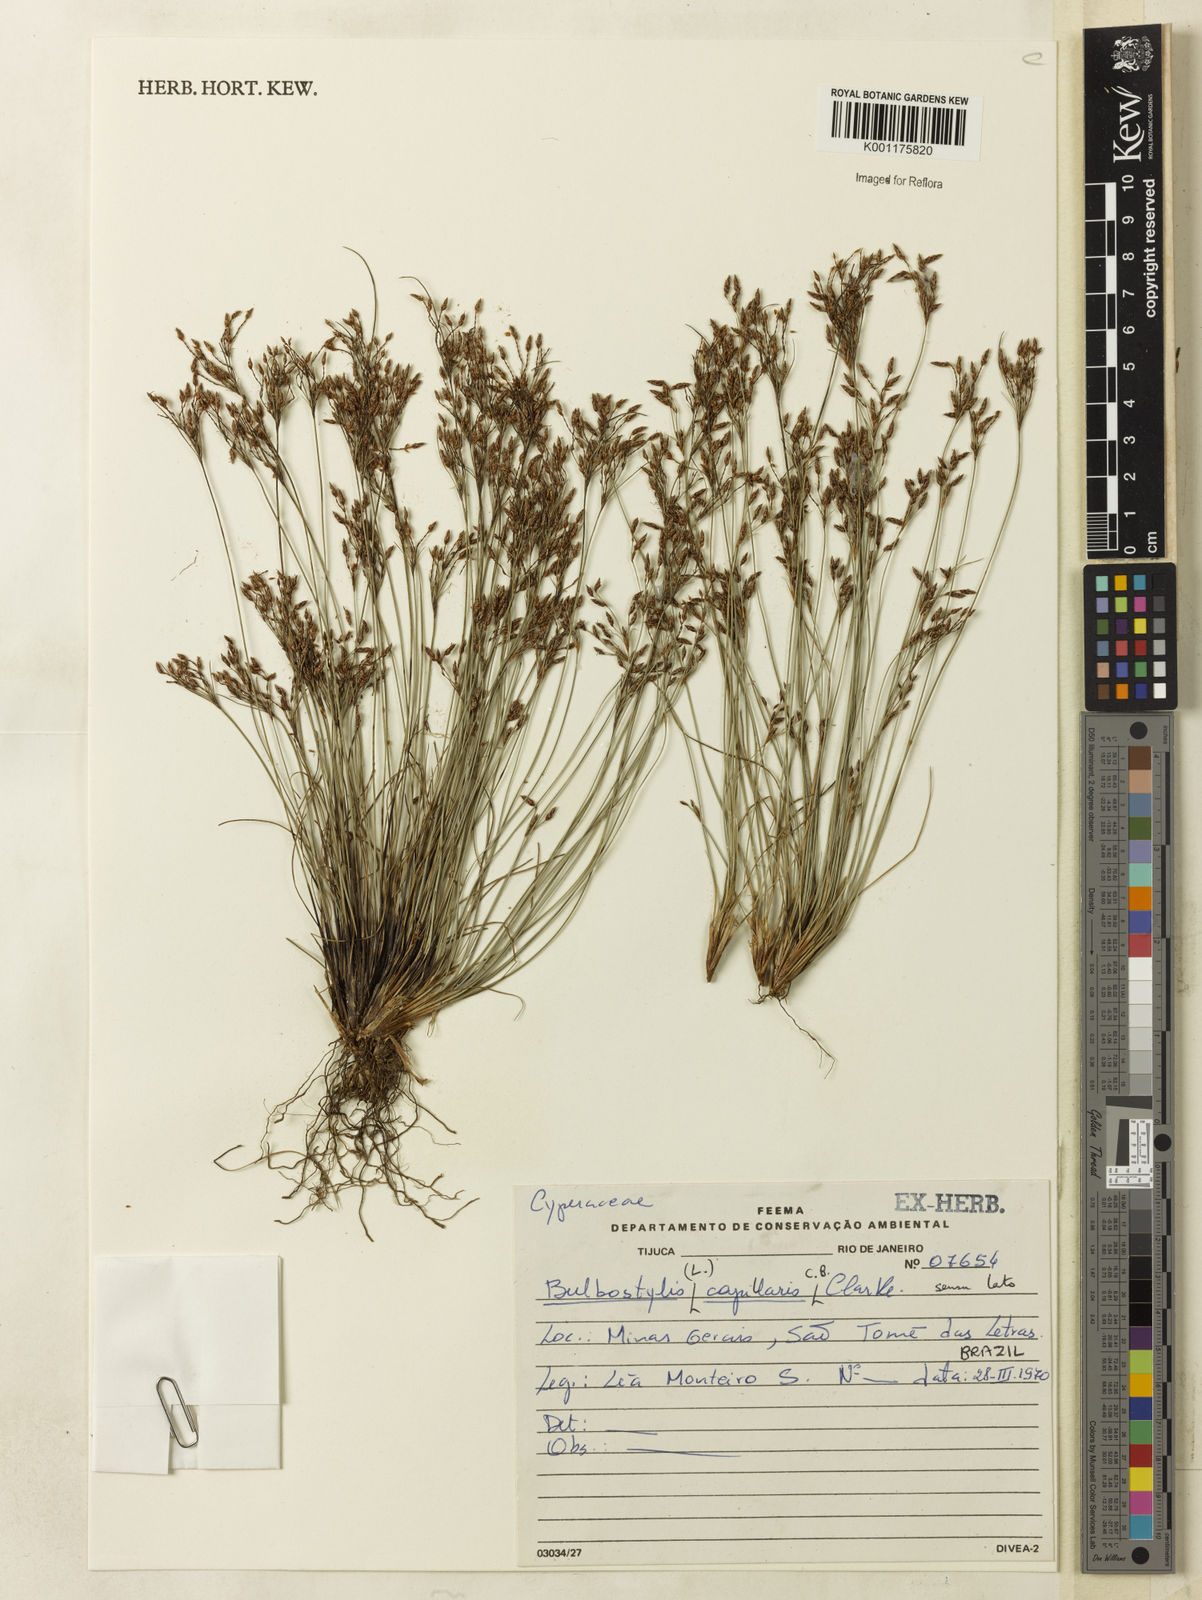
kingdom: Plantae
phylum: Tracheophyta
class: Liliopsida
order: Poales
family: Cyperaceae
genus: Bulbostylis
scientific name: Bulbostylis capillaris
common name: Densetuft hairsedge
